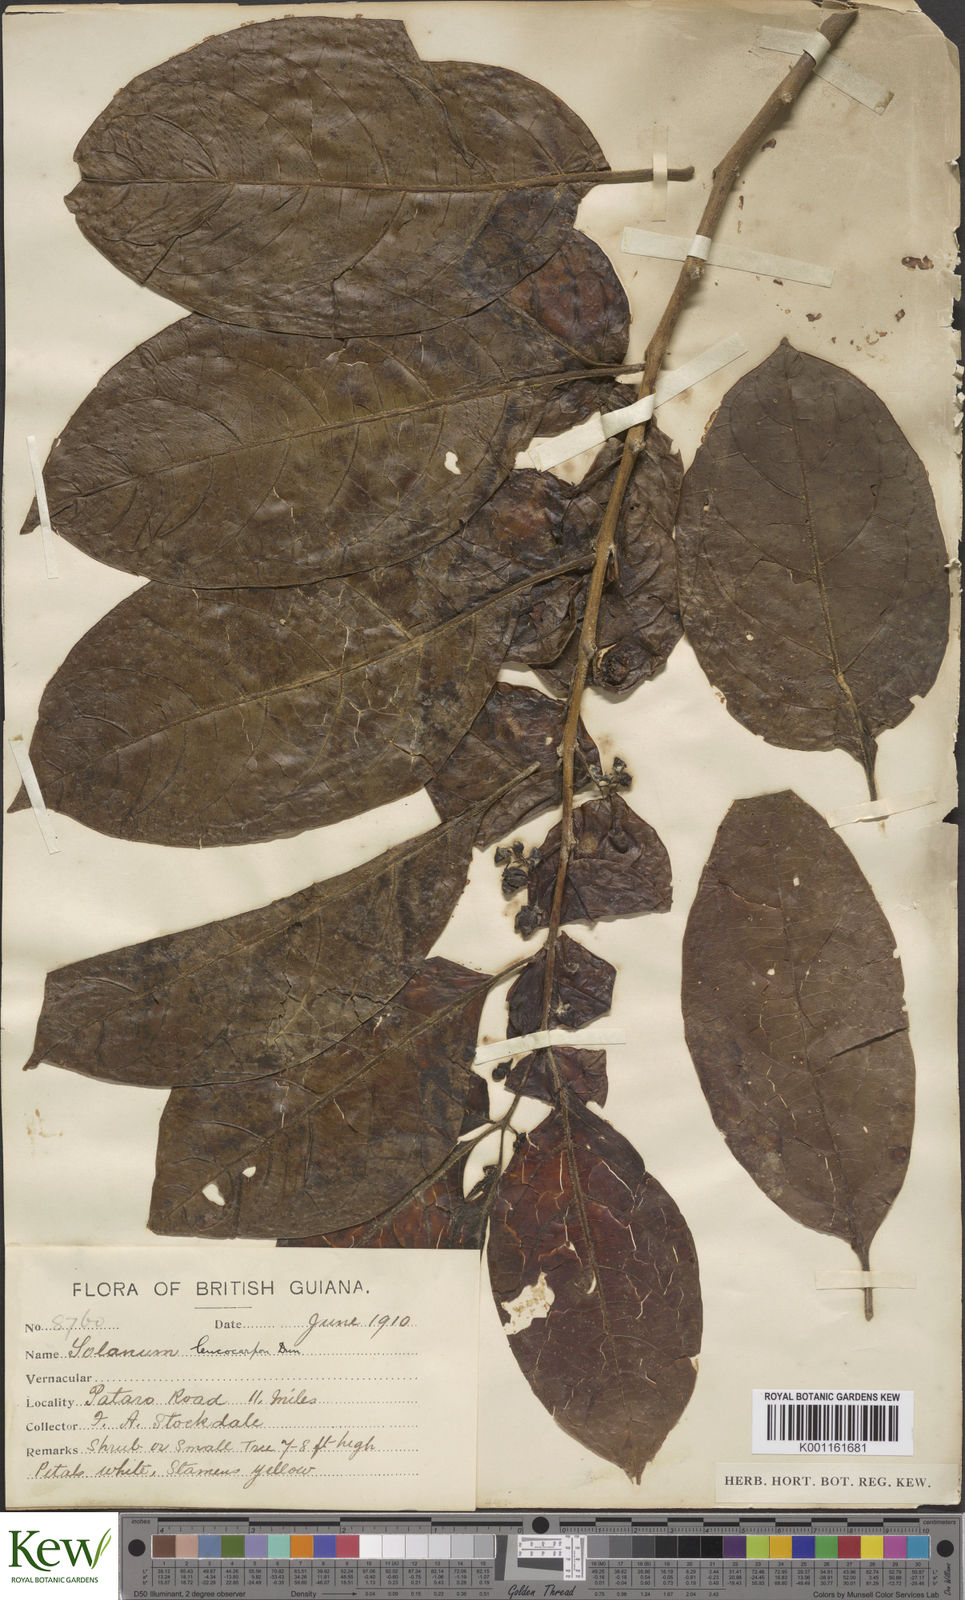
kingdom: Plantae
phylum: Tracheophyta
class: Magnoliopsida
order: Solanales
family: Solanaceae
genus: Solanum
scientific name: Solanum leucocarpon
